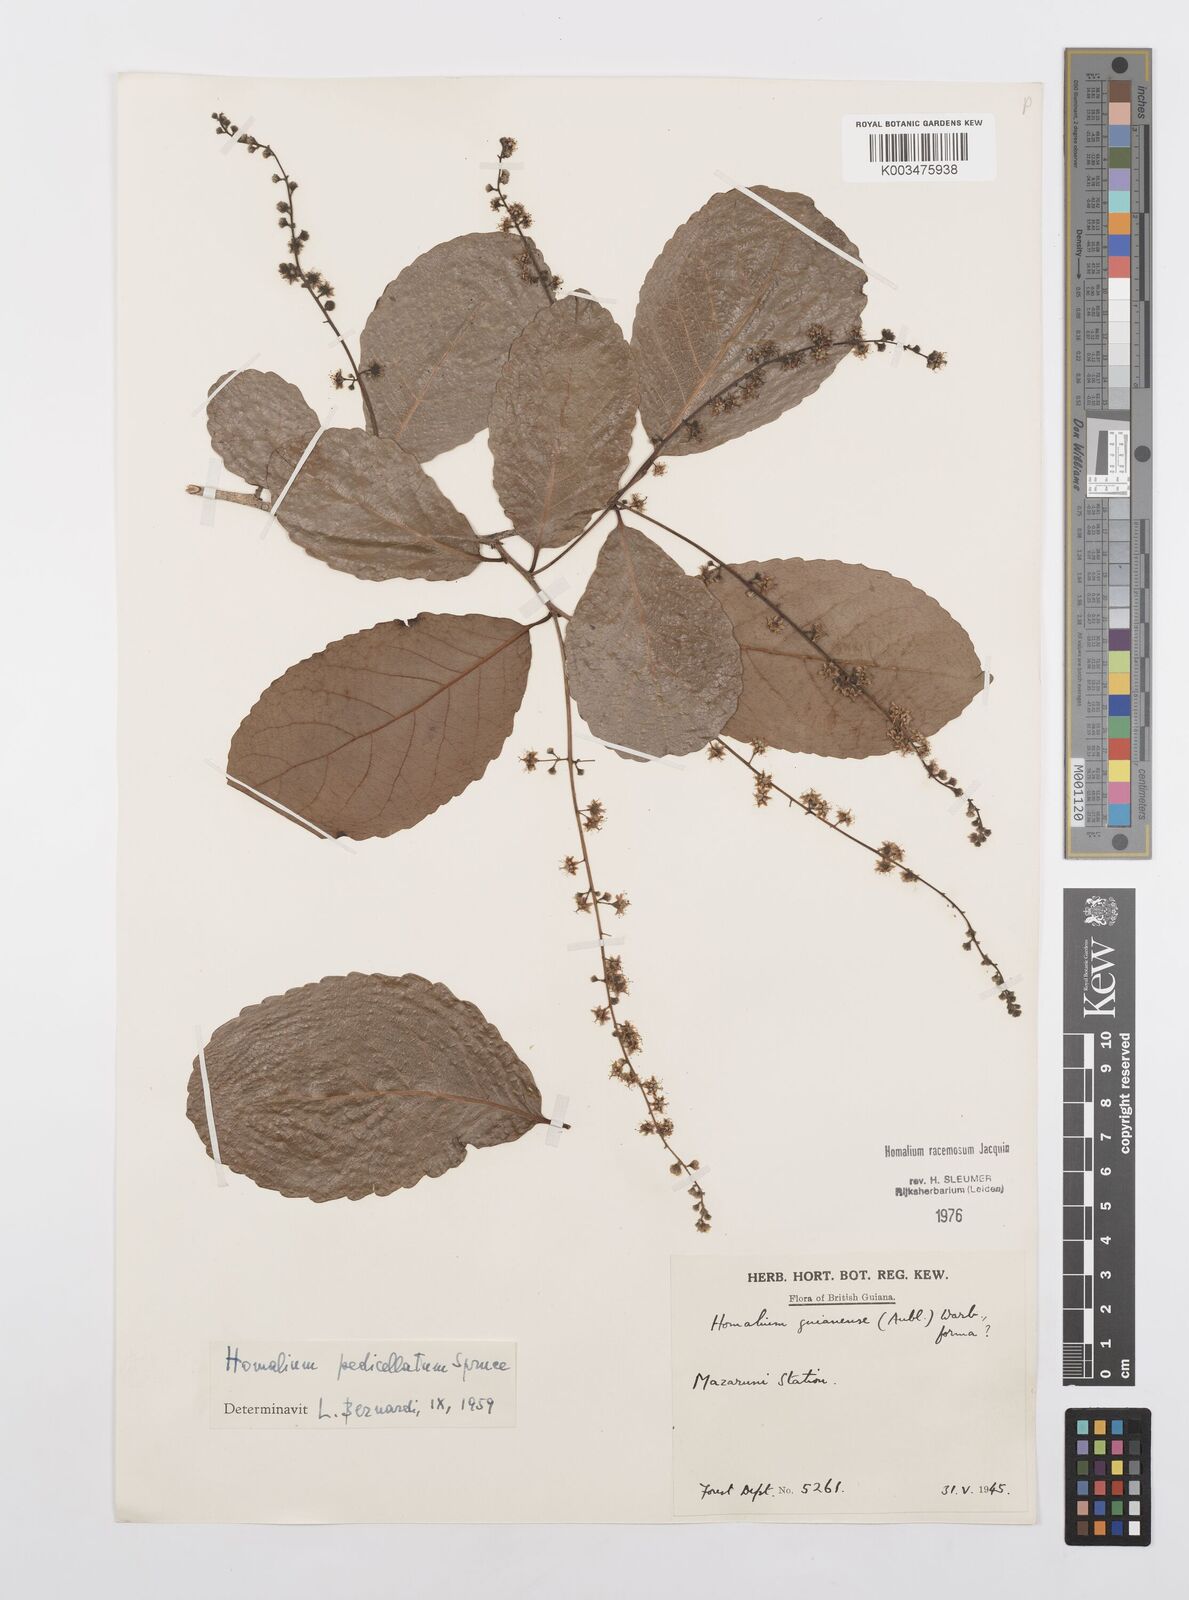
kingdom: Plantae
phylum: Tracheophyta
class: Magnoliopsida
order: Malpighiales
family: Salicaceae
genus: Homalium
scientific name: Homalium racemosum
